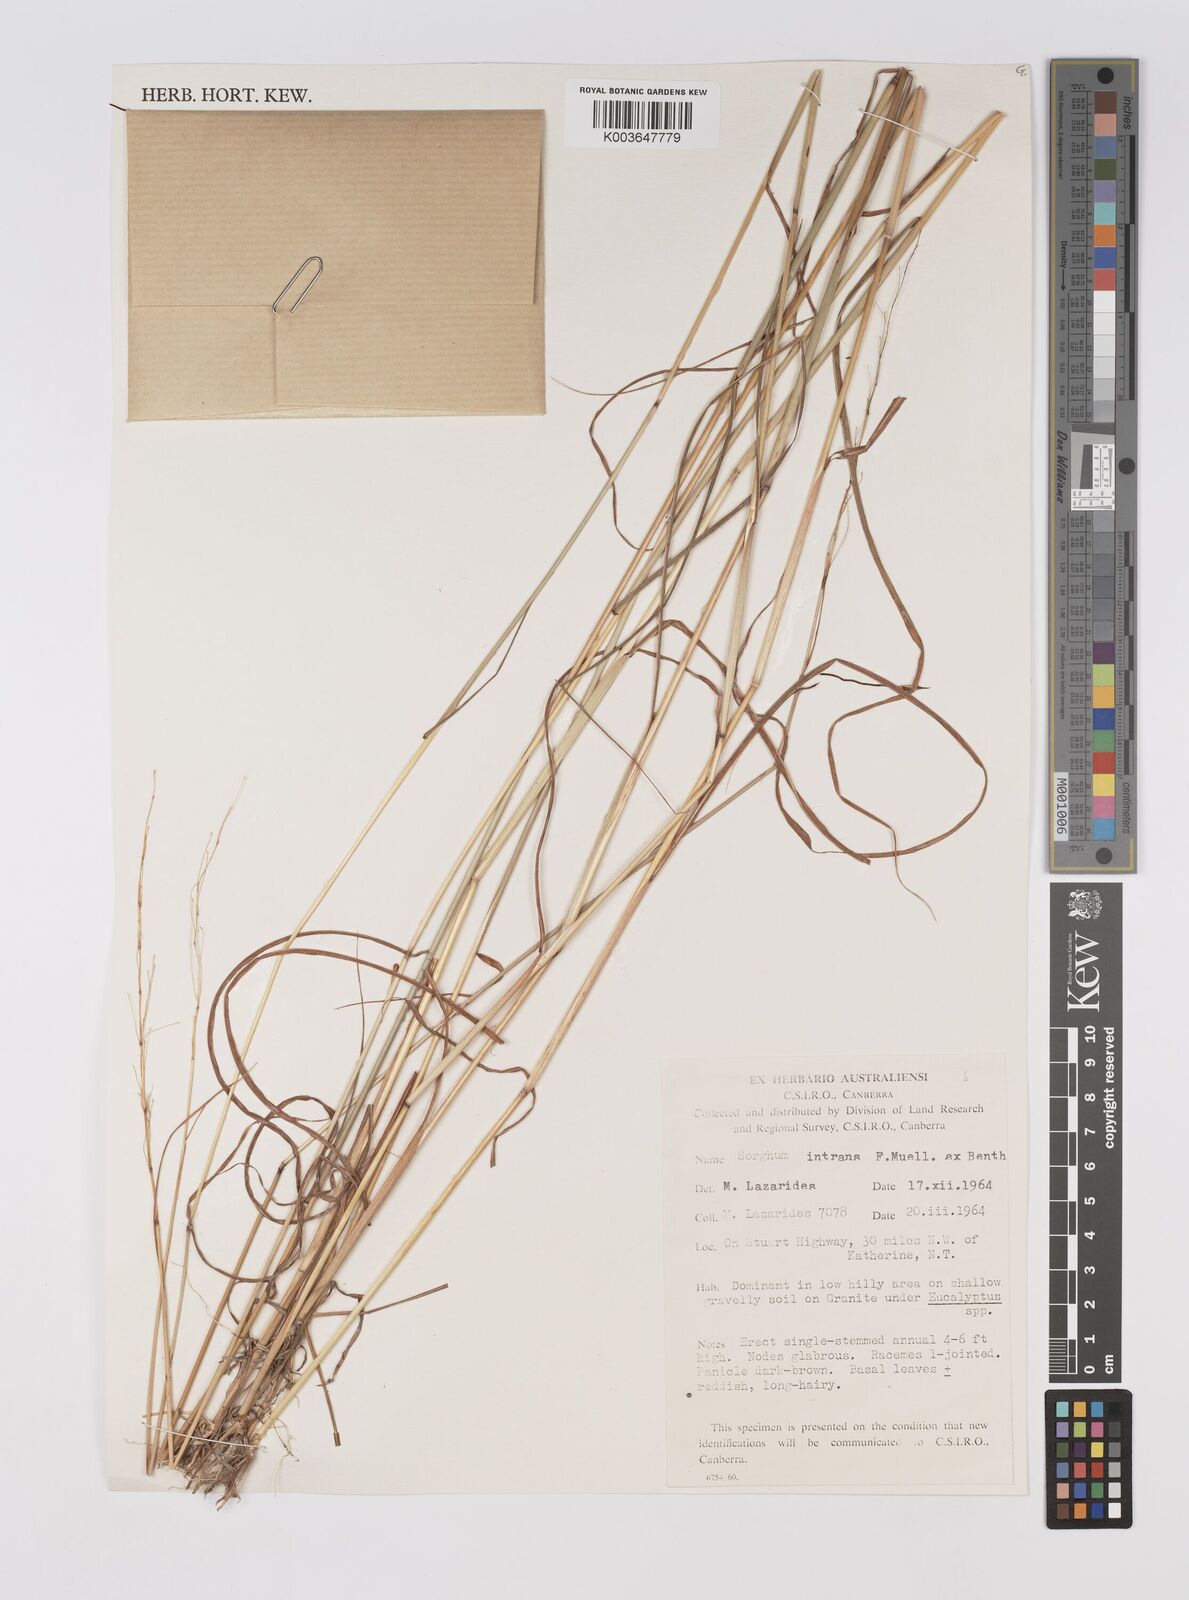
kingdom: Plantae
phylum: Tracheophyta
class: Liliopsida
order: Poales
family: Poaceae
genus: Sarga
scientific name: Sarga intrans
